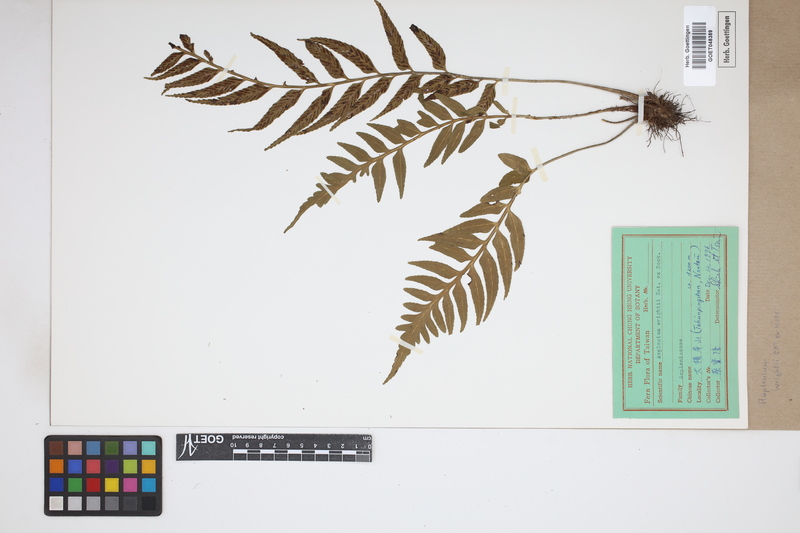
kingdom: Plantae
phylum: Tracheophyta
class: Polypodiopsida
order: Polypodiales
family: Aspleniaceae
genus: Asplenium
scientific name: Asplenium wrightii
